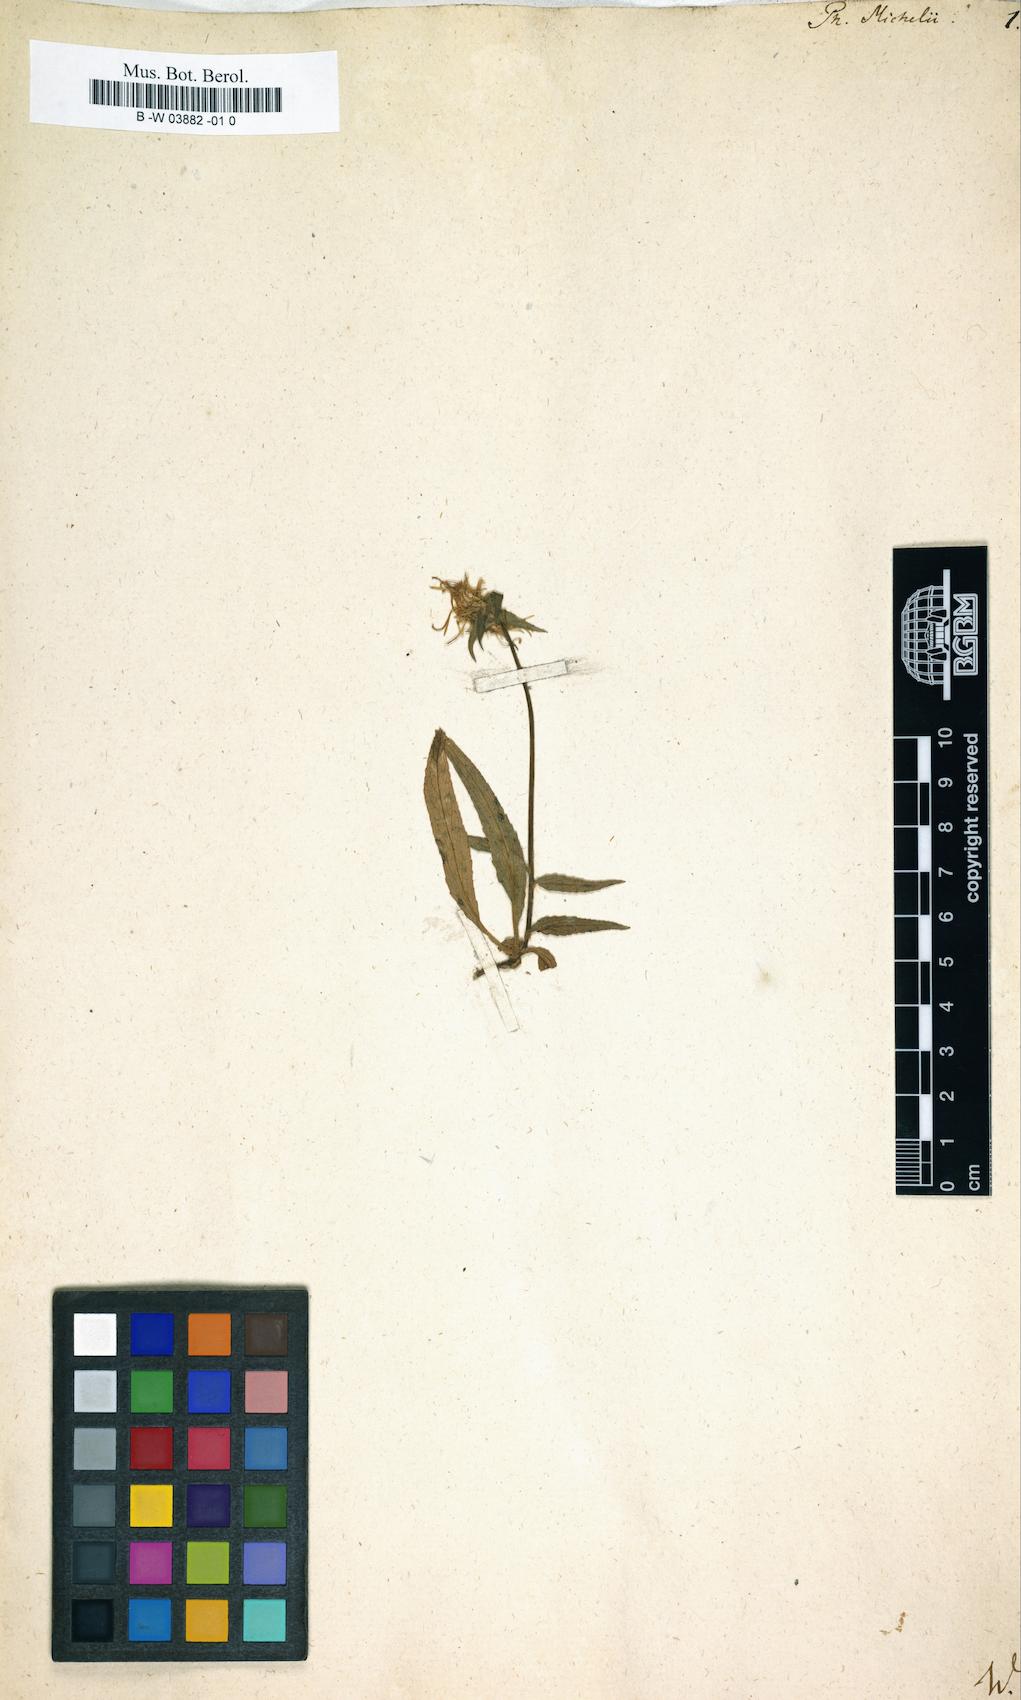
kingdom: Plantae
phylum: Tracheophyta
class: Magnoliopsida
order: Asterales
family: Campanulaceae
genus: Phyteuma
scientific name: Phyteuma michelii
